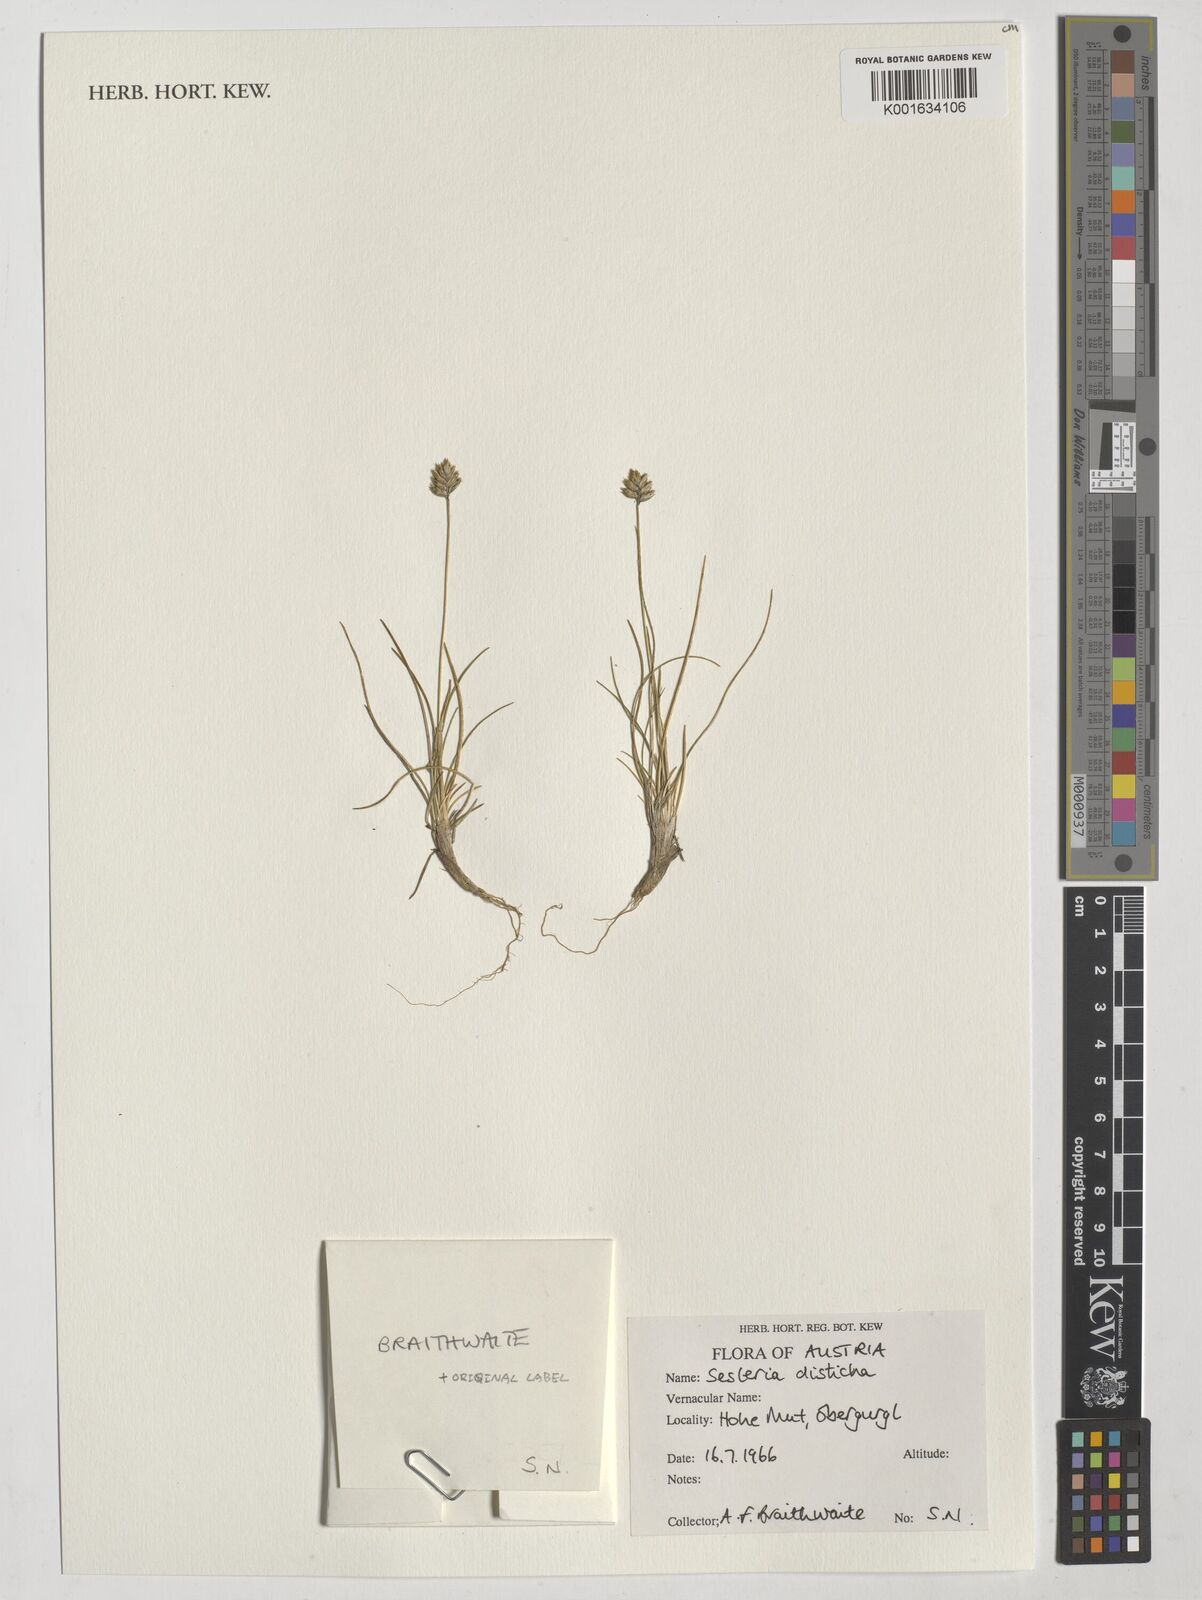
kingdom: Plantae
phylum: Tracheophyta
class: Liliopsida
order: Poales
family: Poaceae
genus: Oreochloa
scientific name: Oreochloa disticha
